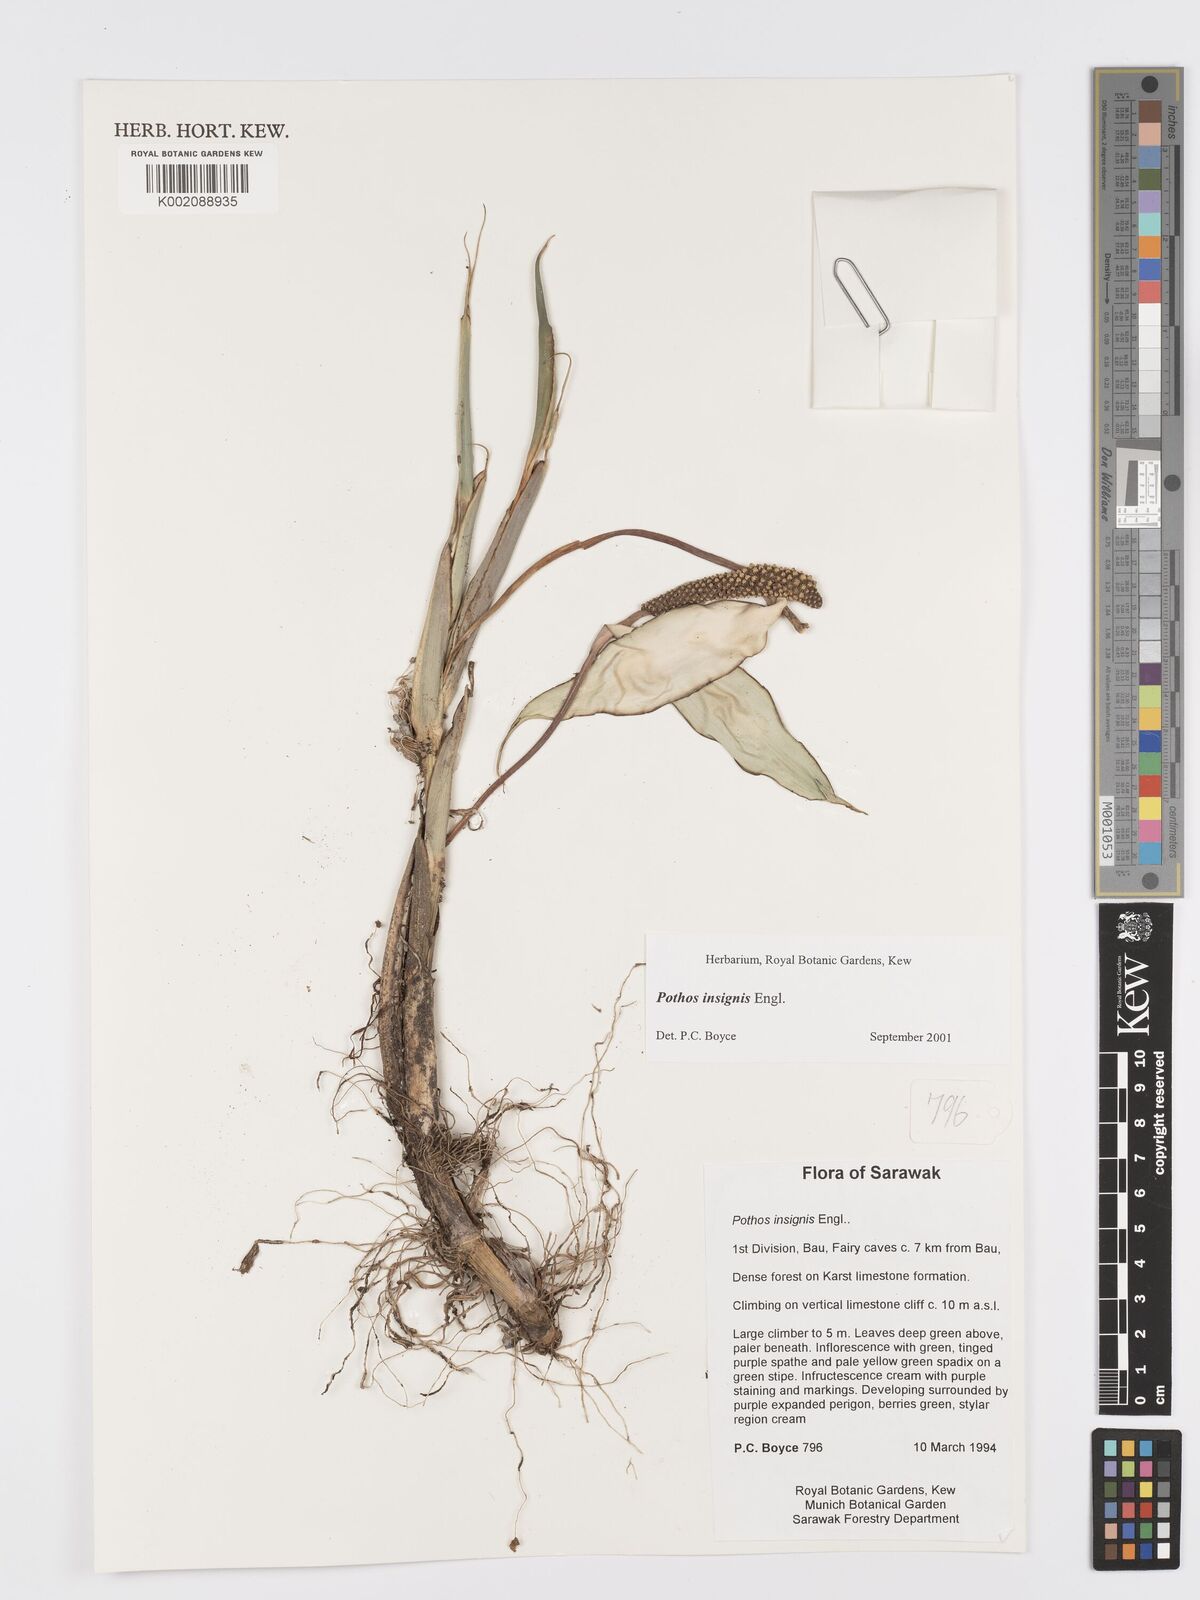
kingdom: Plantae
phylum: Tracheophyta
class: Liliopsida
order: Alismatales
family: Araceae
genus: Pothos
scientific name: Pothos insignis
